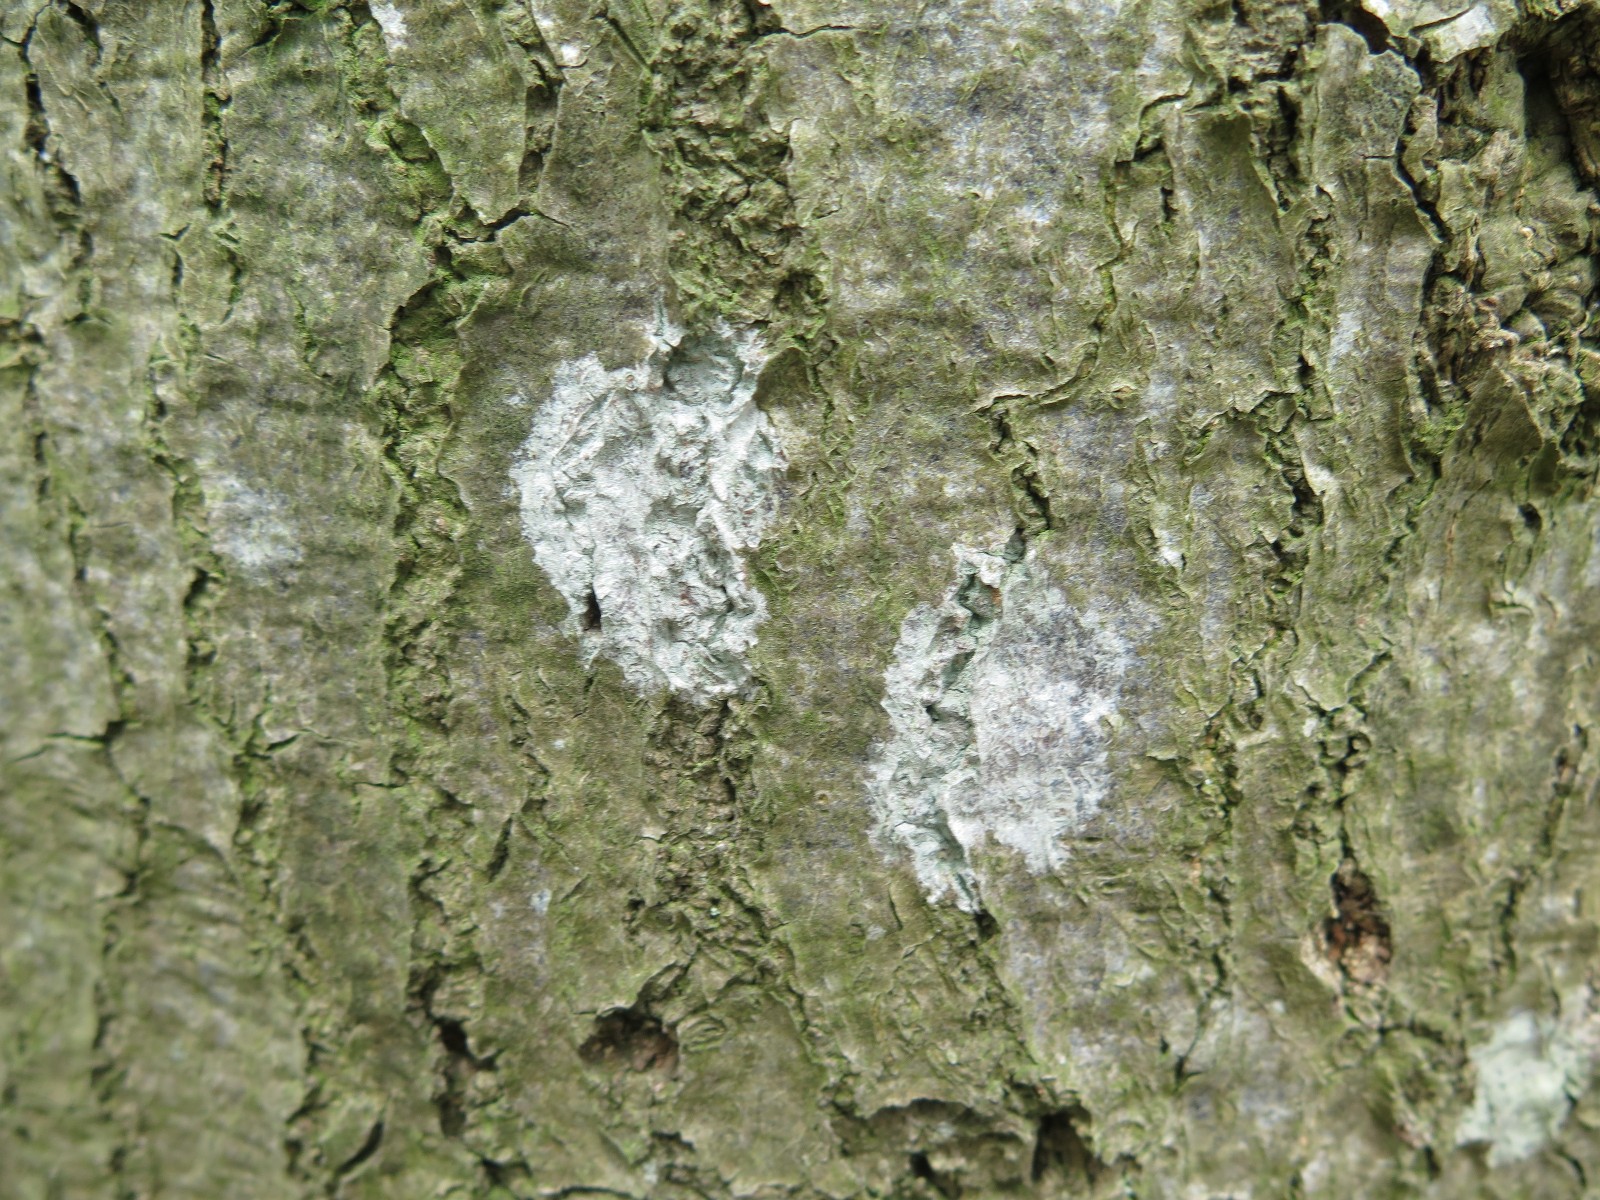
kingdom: Fungi
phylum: Ascomycota
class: Lecanoromycetes
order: Ostropales
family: Phlyctidaceae
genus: Phlyctis
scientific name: Phlyctis argena
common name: almindelig sølvlav
